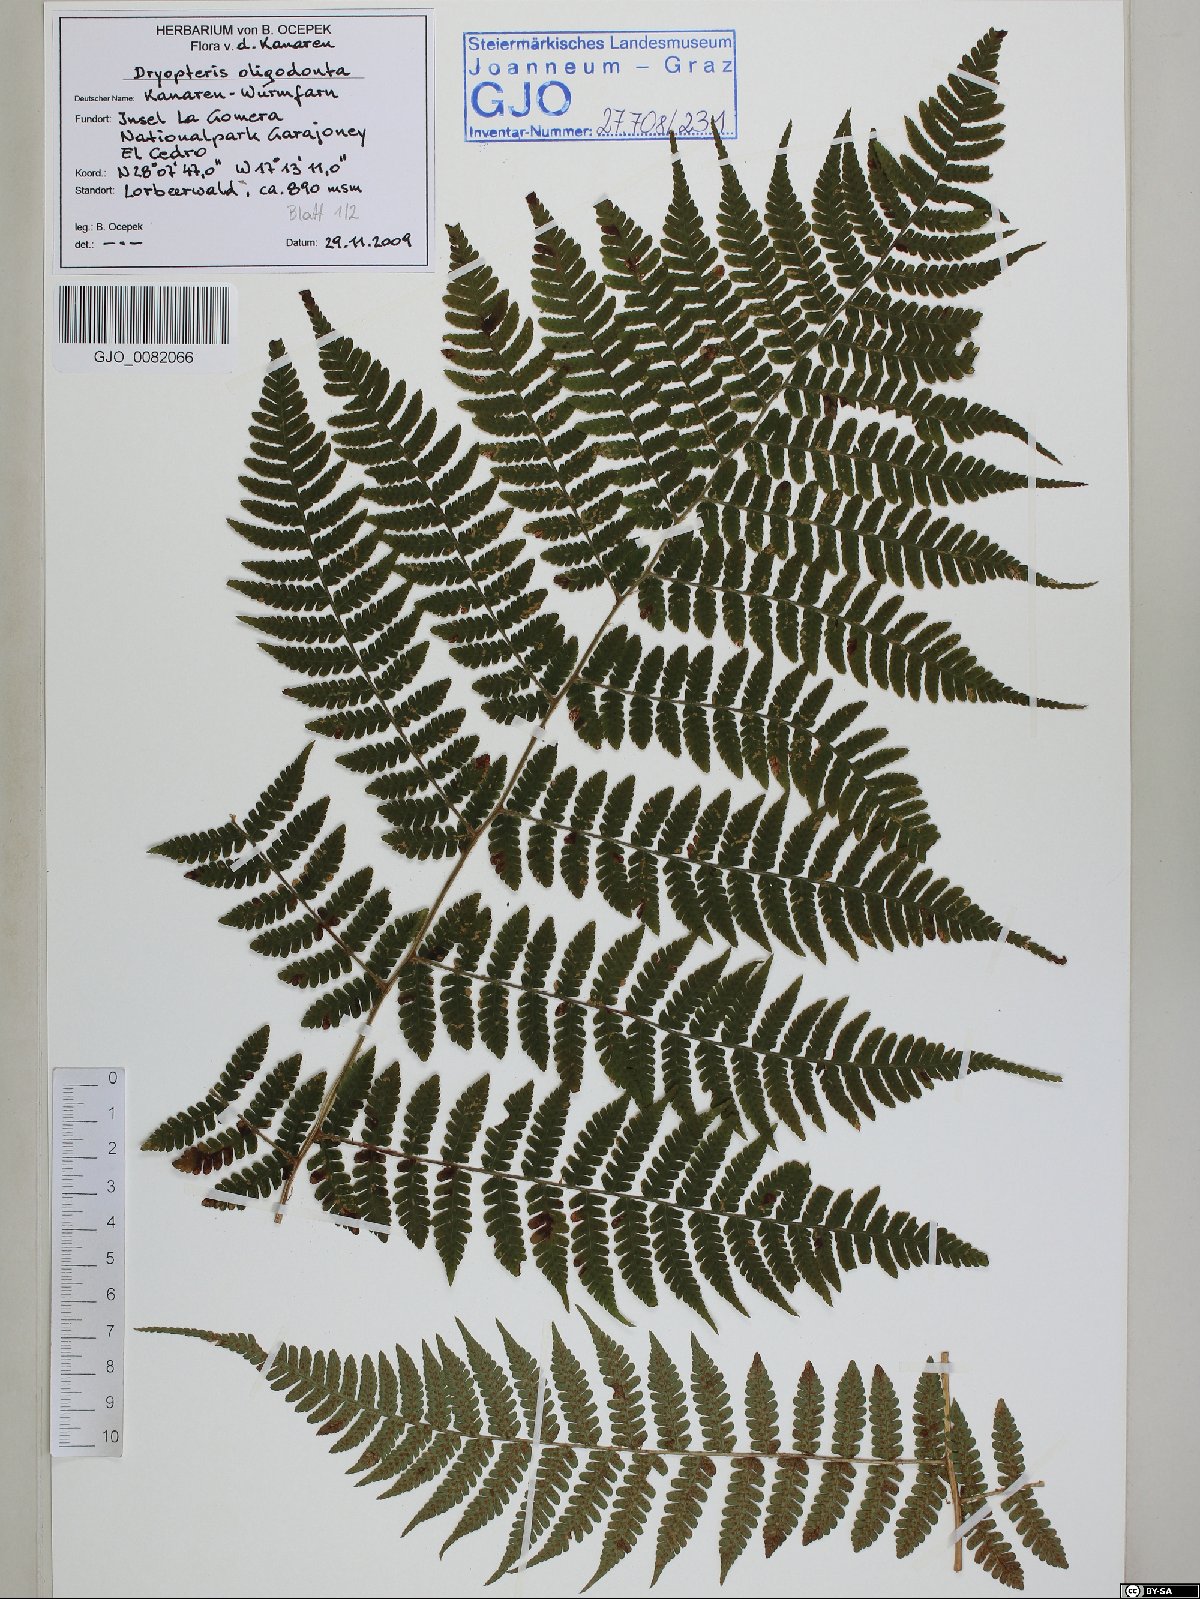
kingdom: Plantae
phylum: Tracheophyta
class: Polypodiopsida
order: Polypodiales
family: Dryopteridaceae
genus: Dryopteris
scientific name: Dryopteris oligodonta
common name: Canarian male-fern
